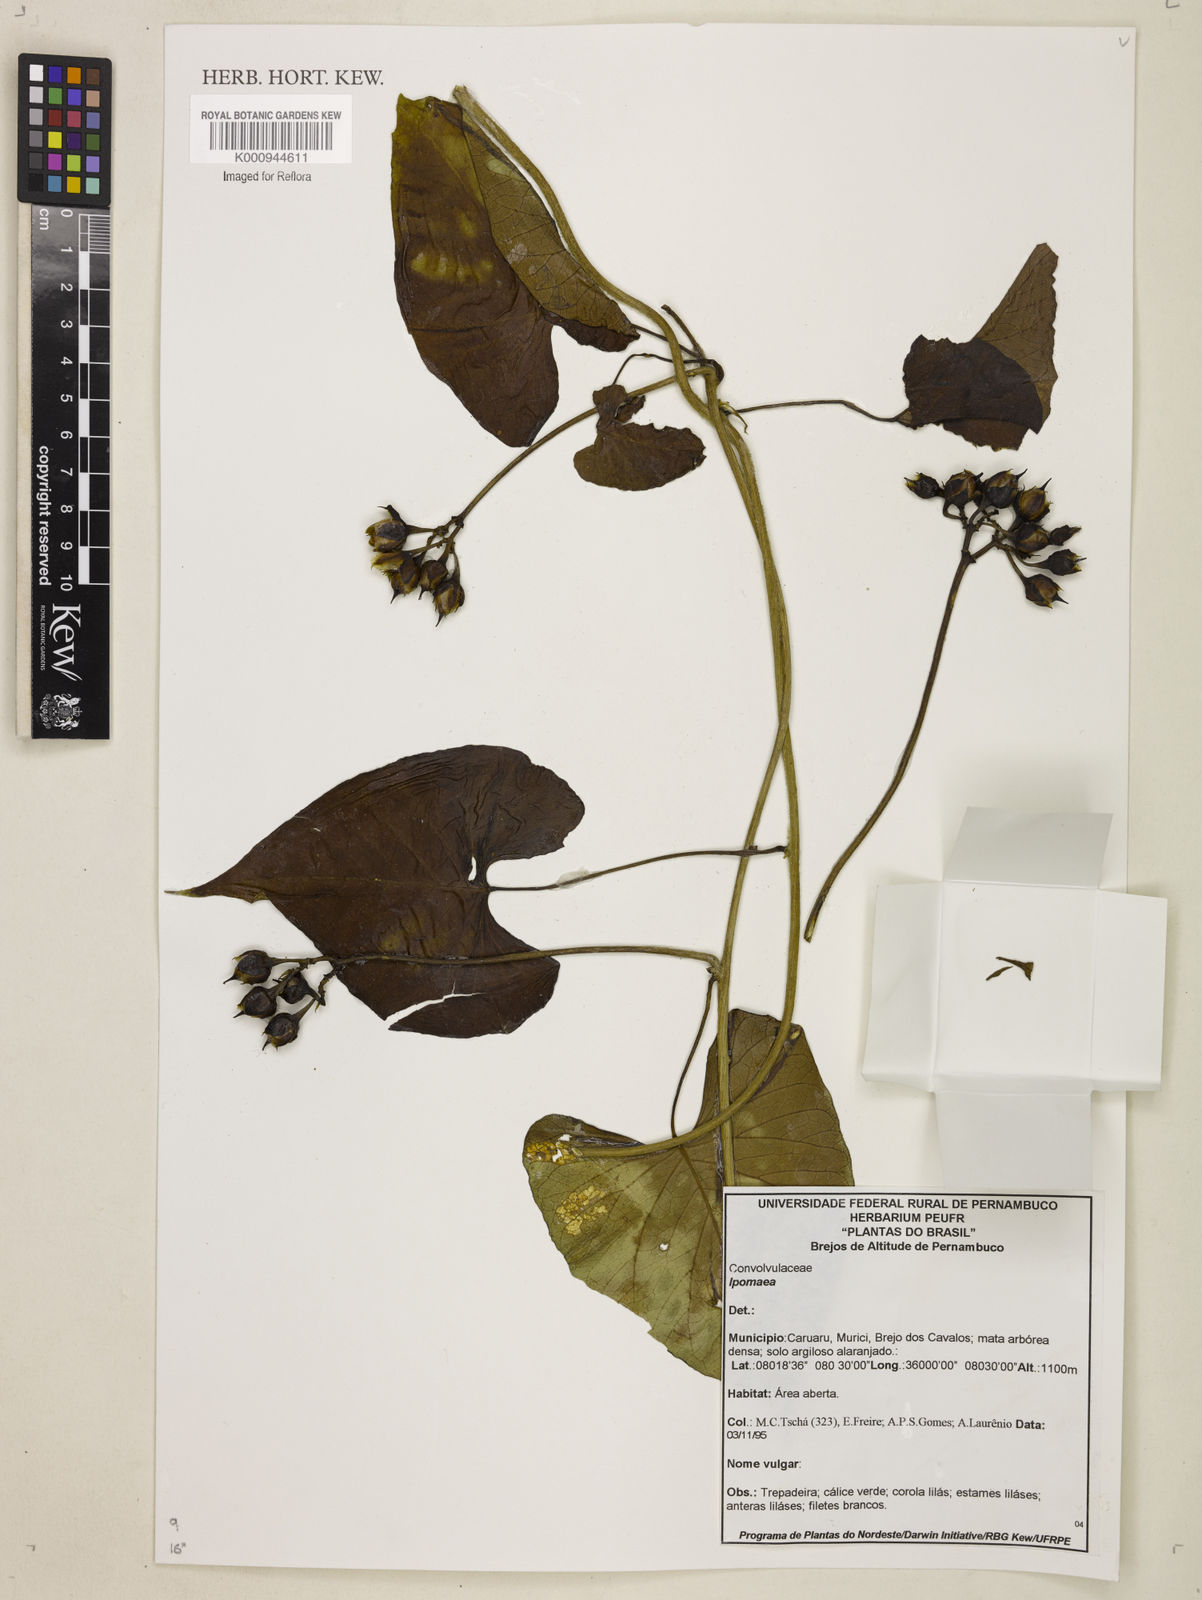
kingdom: Plantae
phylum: Tracheophyta
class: Magnoliopsida
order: Solanales
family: Convolvulaceae
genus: Ipomoea
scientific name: Ipomoea
